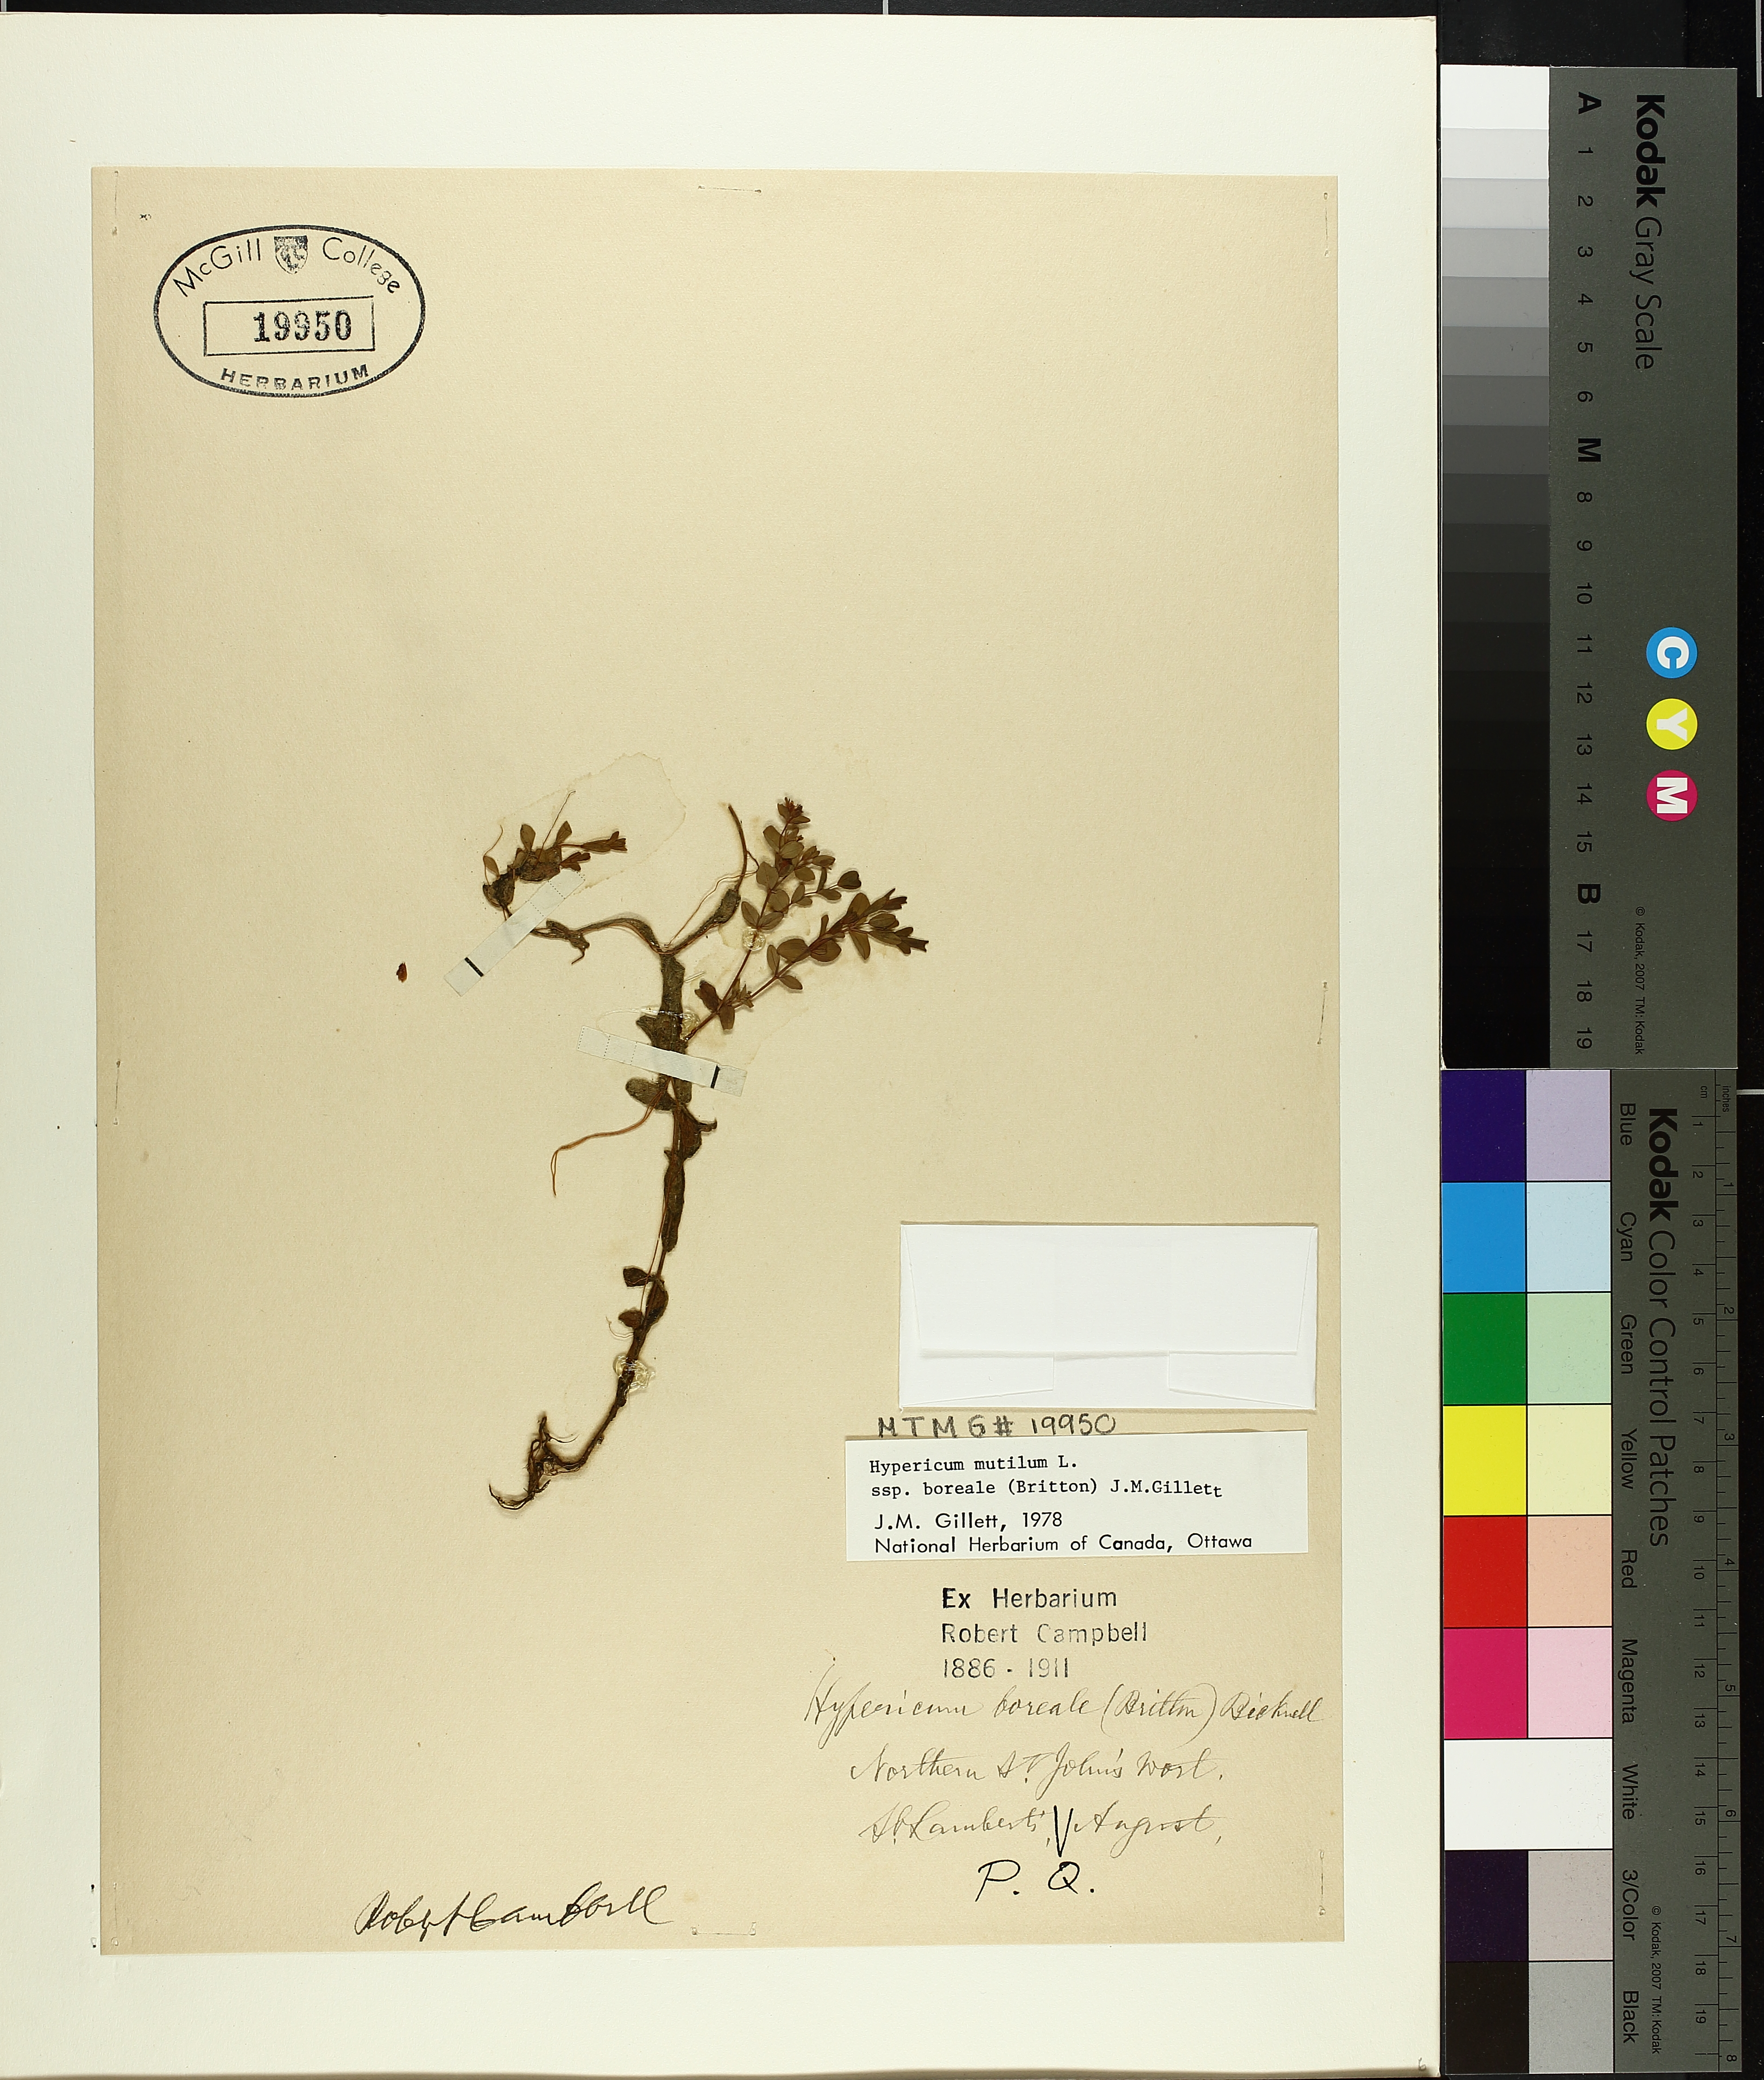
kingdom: Plantae
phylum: Tracheophyta
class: Magnoliopsida
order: Malpighiales
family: Hypericaceae
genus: Hypericum
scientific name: Hypericum boreale
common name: Northern bog st. john's-wort
